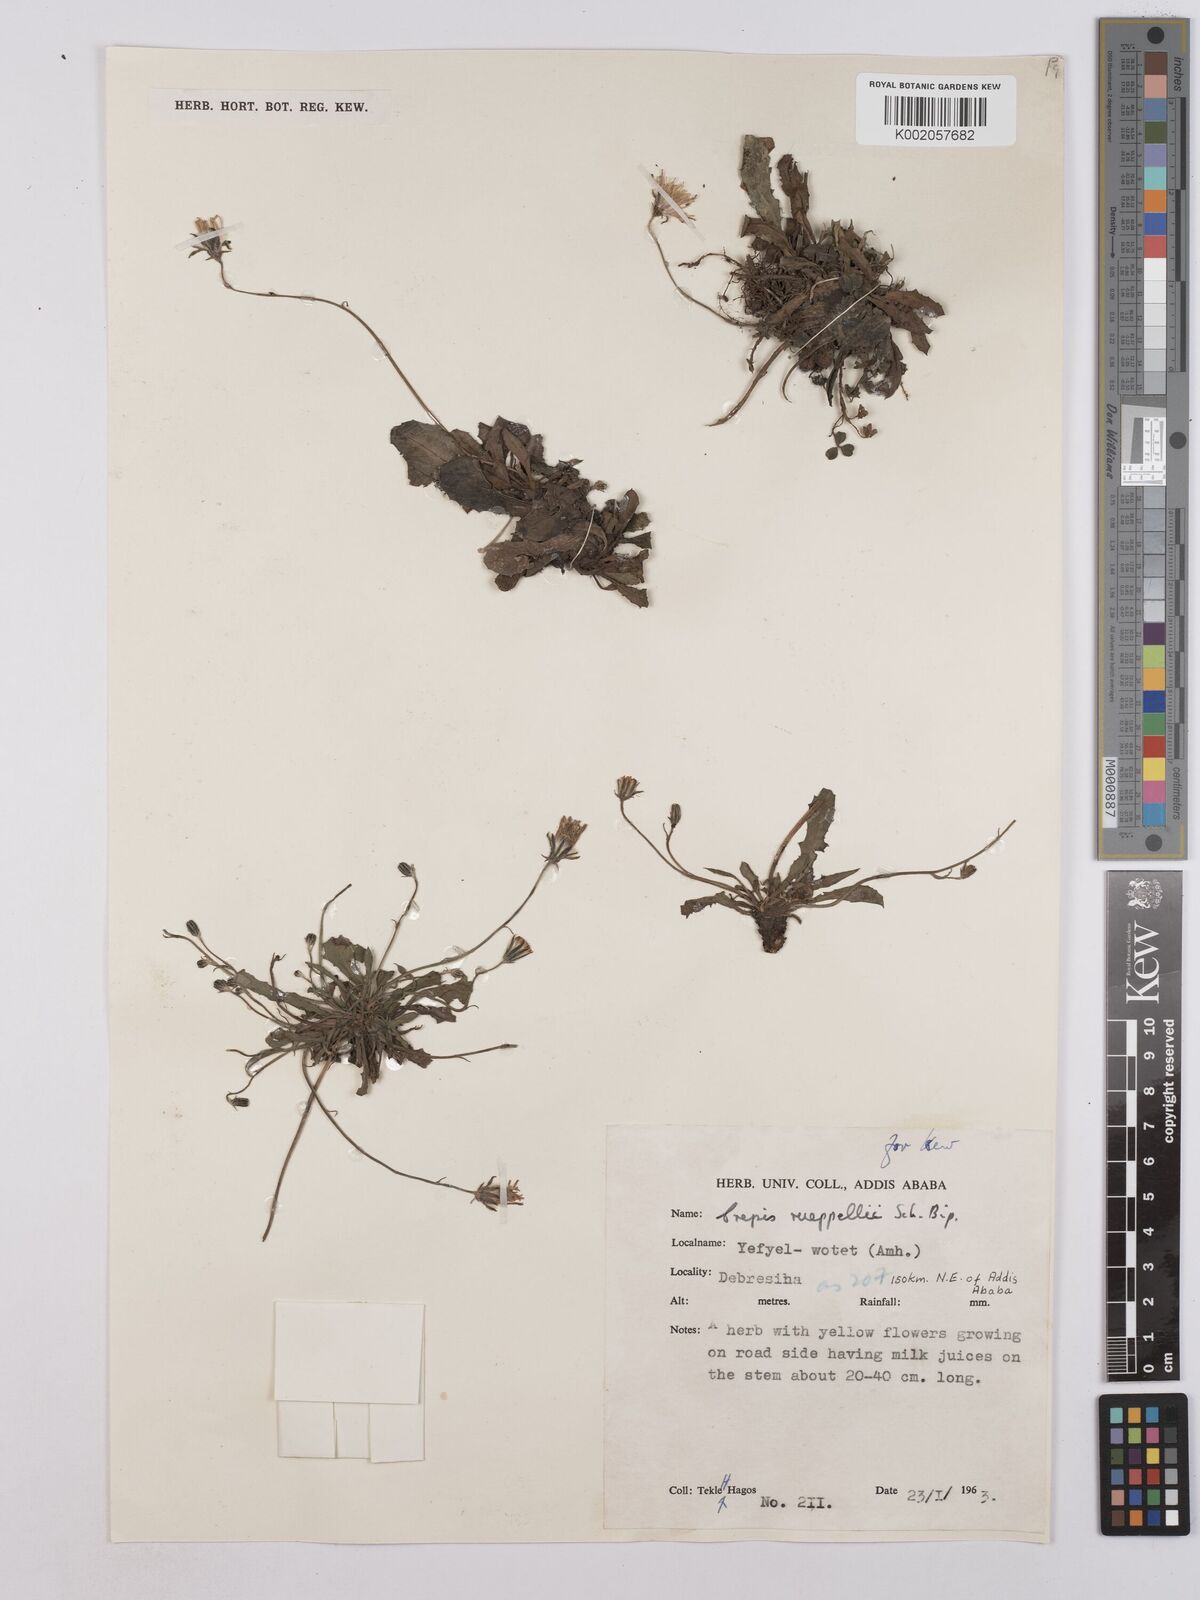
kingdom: Plantae
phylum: Tracheophyta
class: Magnoliopsida
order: Asterales
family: Asteraceae
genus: Crepis
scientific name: Crepis rueppellii
